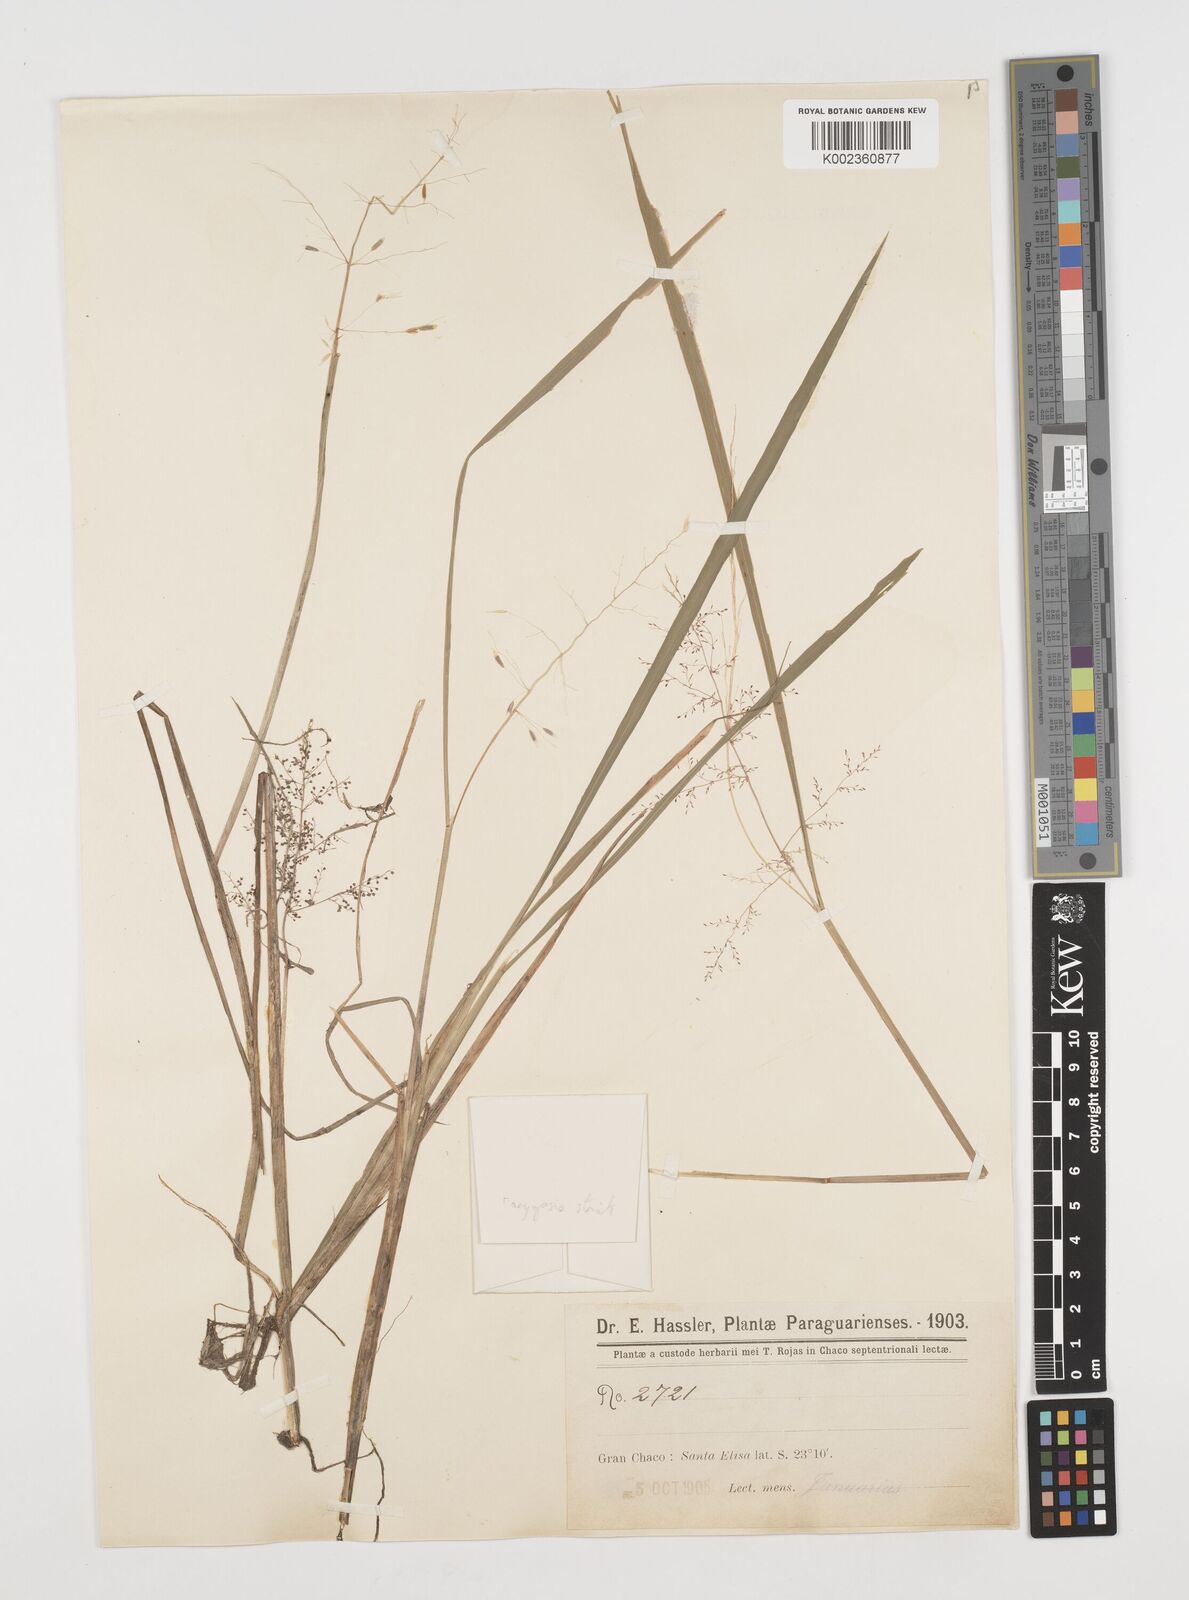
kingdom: Plantae
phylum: Tracheophyta
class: Liliopsida
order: Poales
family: Poaceae
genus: Luziola
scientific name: Luziola gracillima
